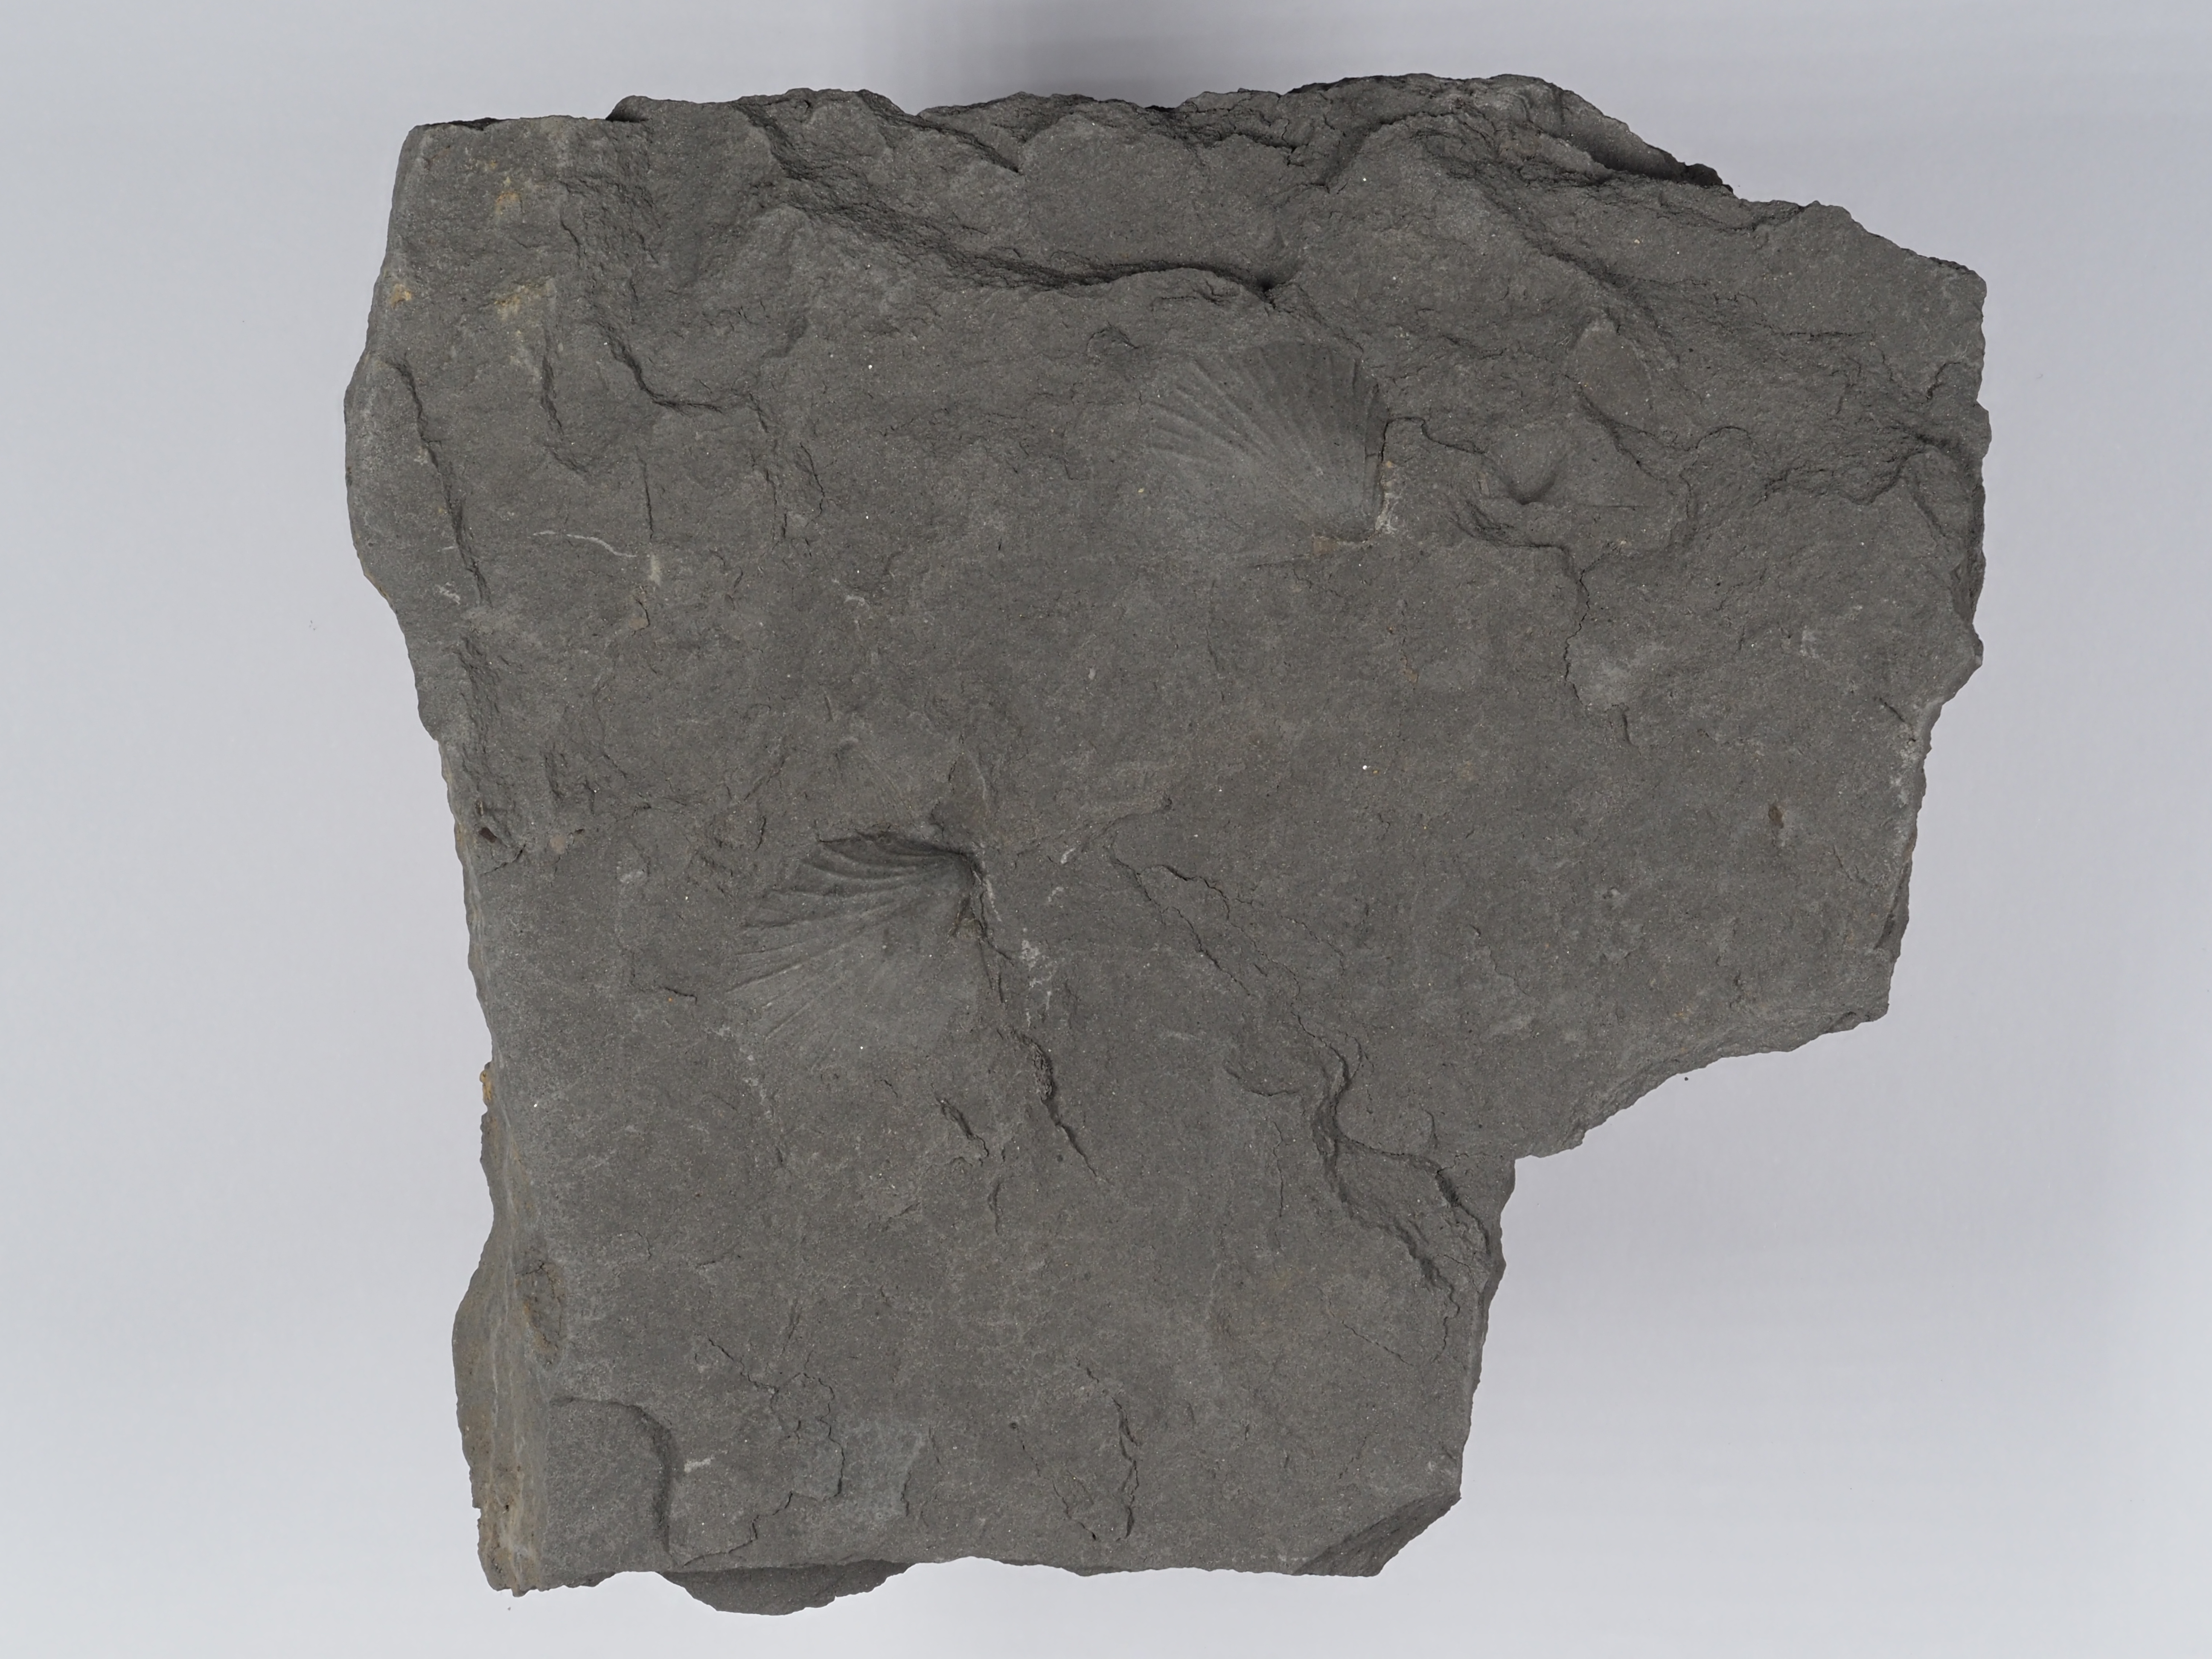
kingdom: Animalia
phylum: Mollusca
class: Bivalvia
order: Pectinida
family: Oxytomidae
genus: Oxytoma
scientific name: Oxytoma inequivalve
